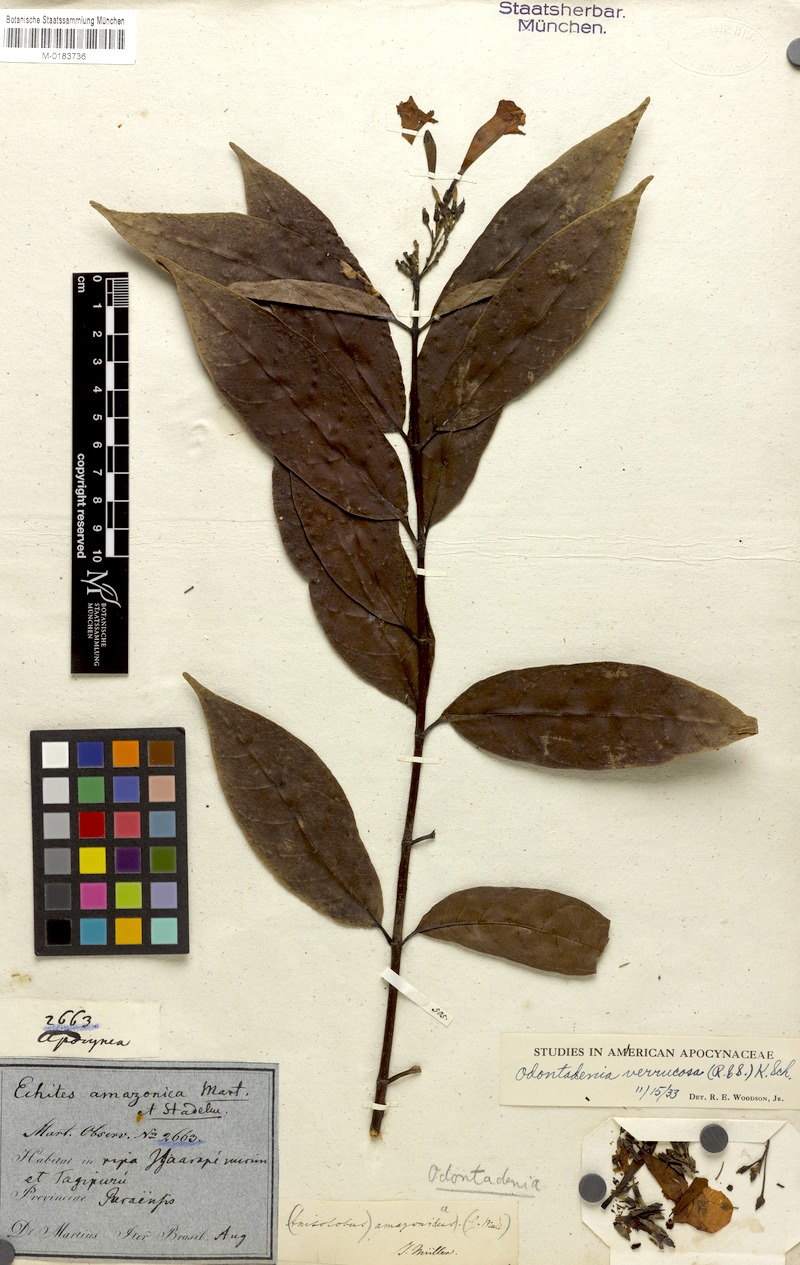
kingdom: Plantae
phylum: Tracheophyta
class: Magnoliopsida
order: Gentianales
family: Apocynaceae
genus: Odontadenia
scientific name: Odontadenia verrucosa
